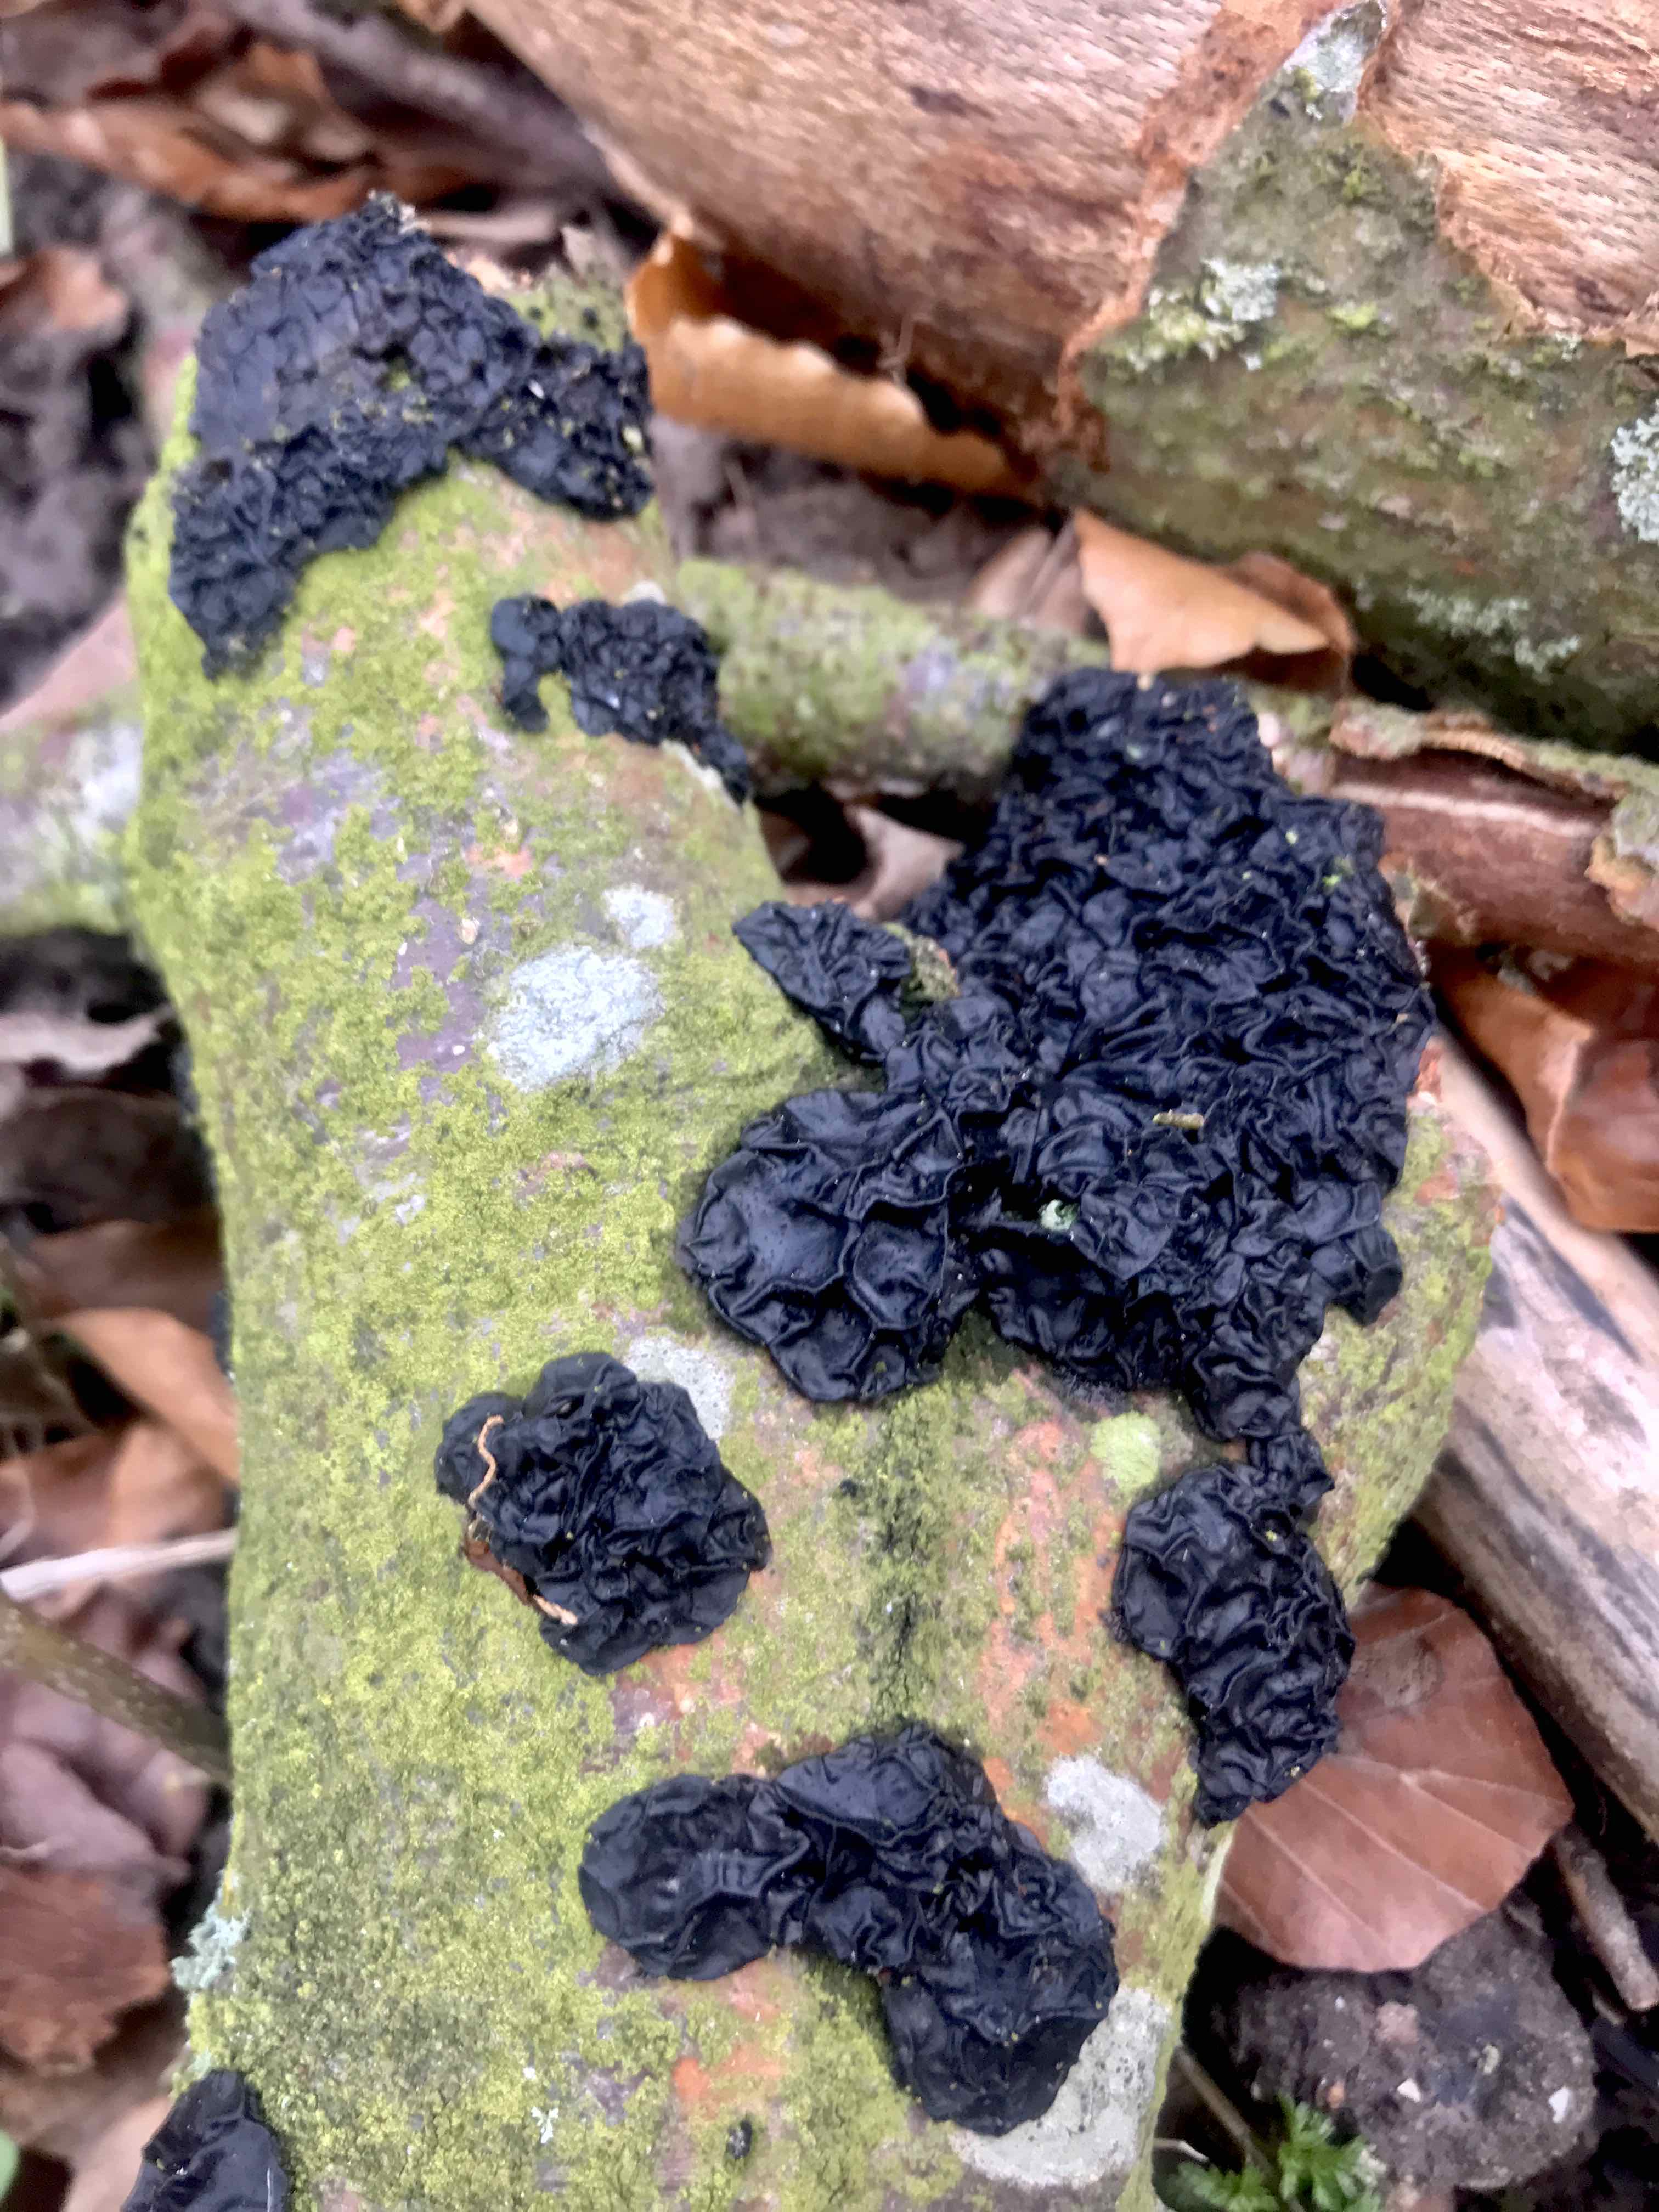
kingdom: Fungi
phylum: Basidiomycota
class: Agaricomycetes
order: Auriculariales
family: Auriculariaceae
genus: Exidia
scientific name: Exidia nigricans
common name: almindelig bævretop
